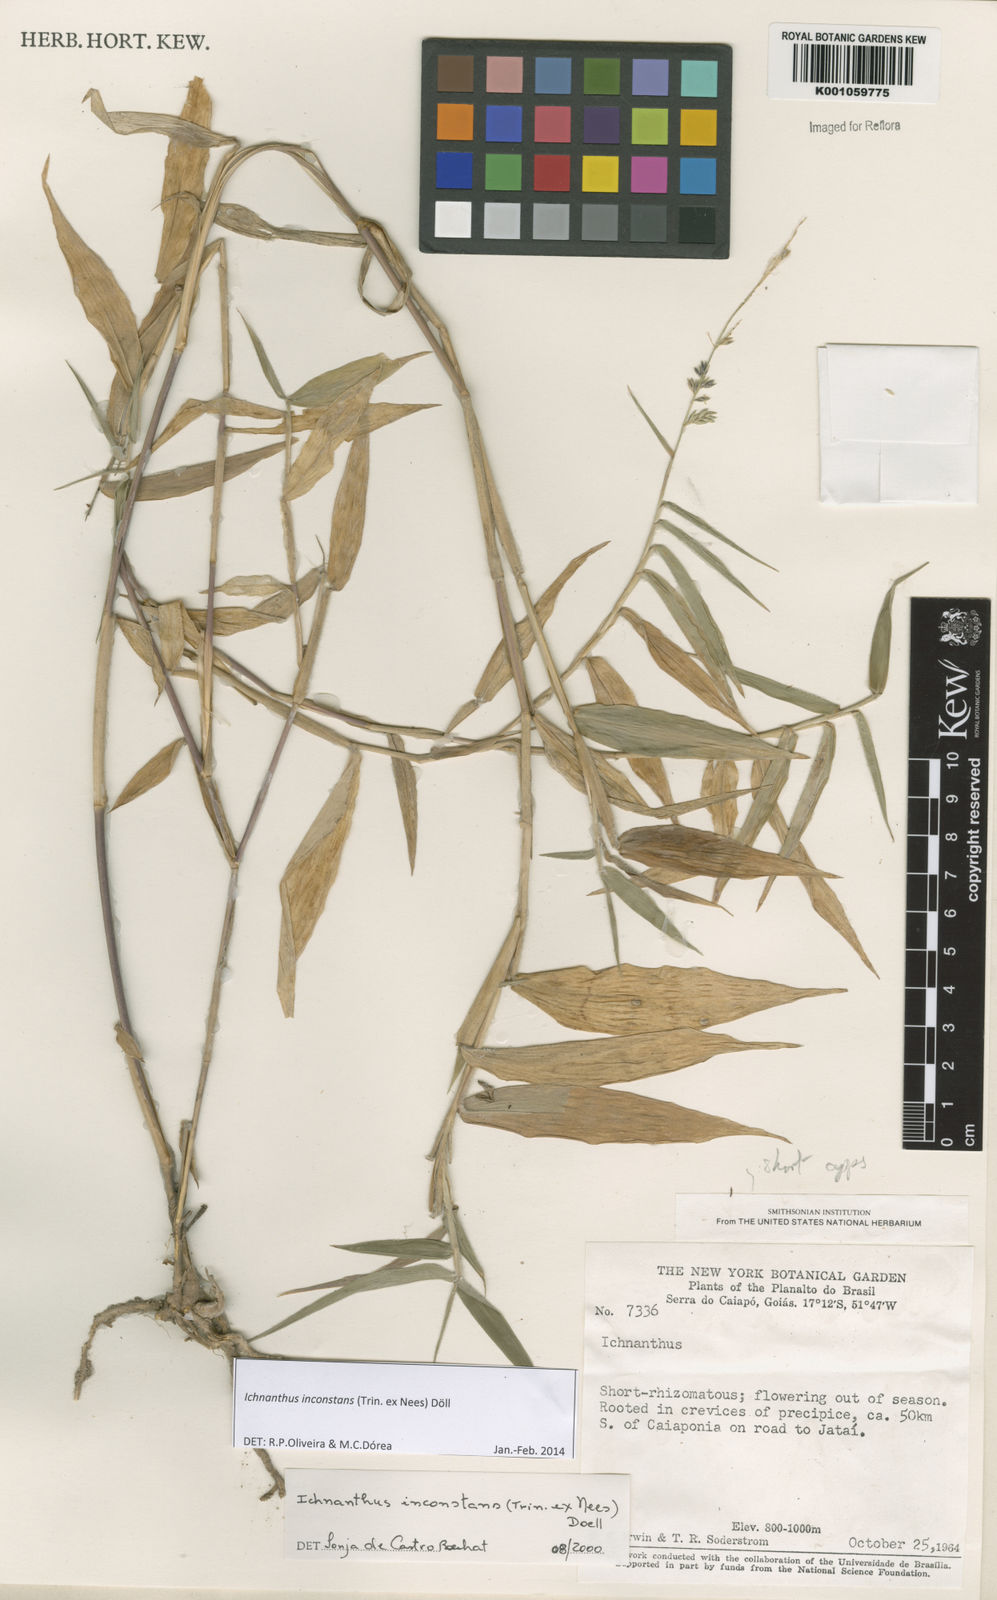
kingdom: Plantae
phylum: Tracheophyta
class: Liliopsida
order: Poales
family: Poaceae
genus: Ichnanthus
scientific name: Ichnanthus
